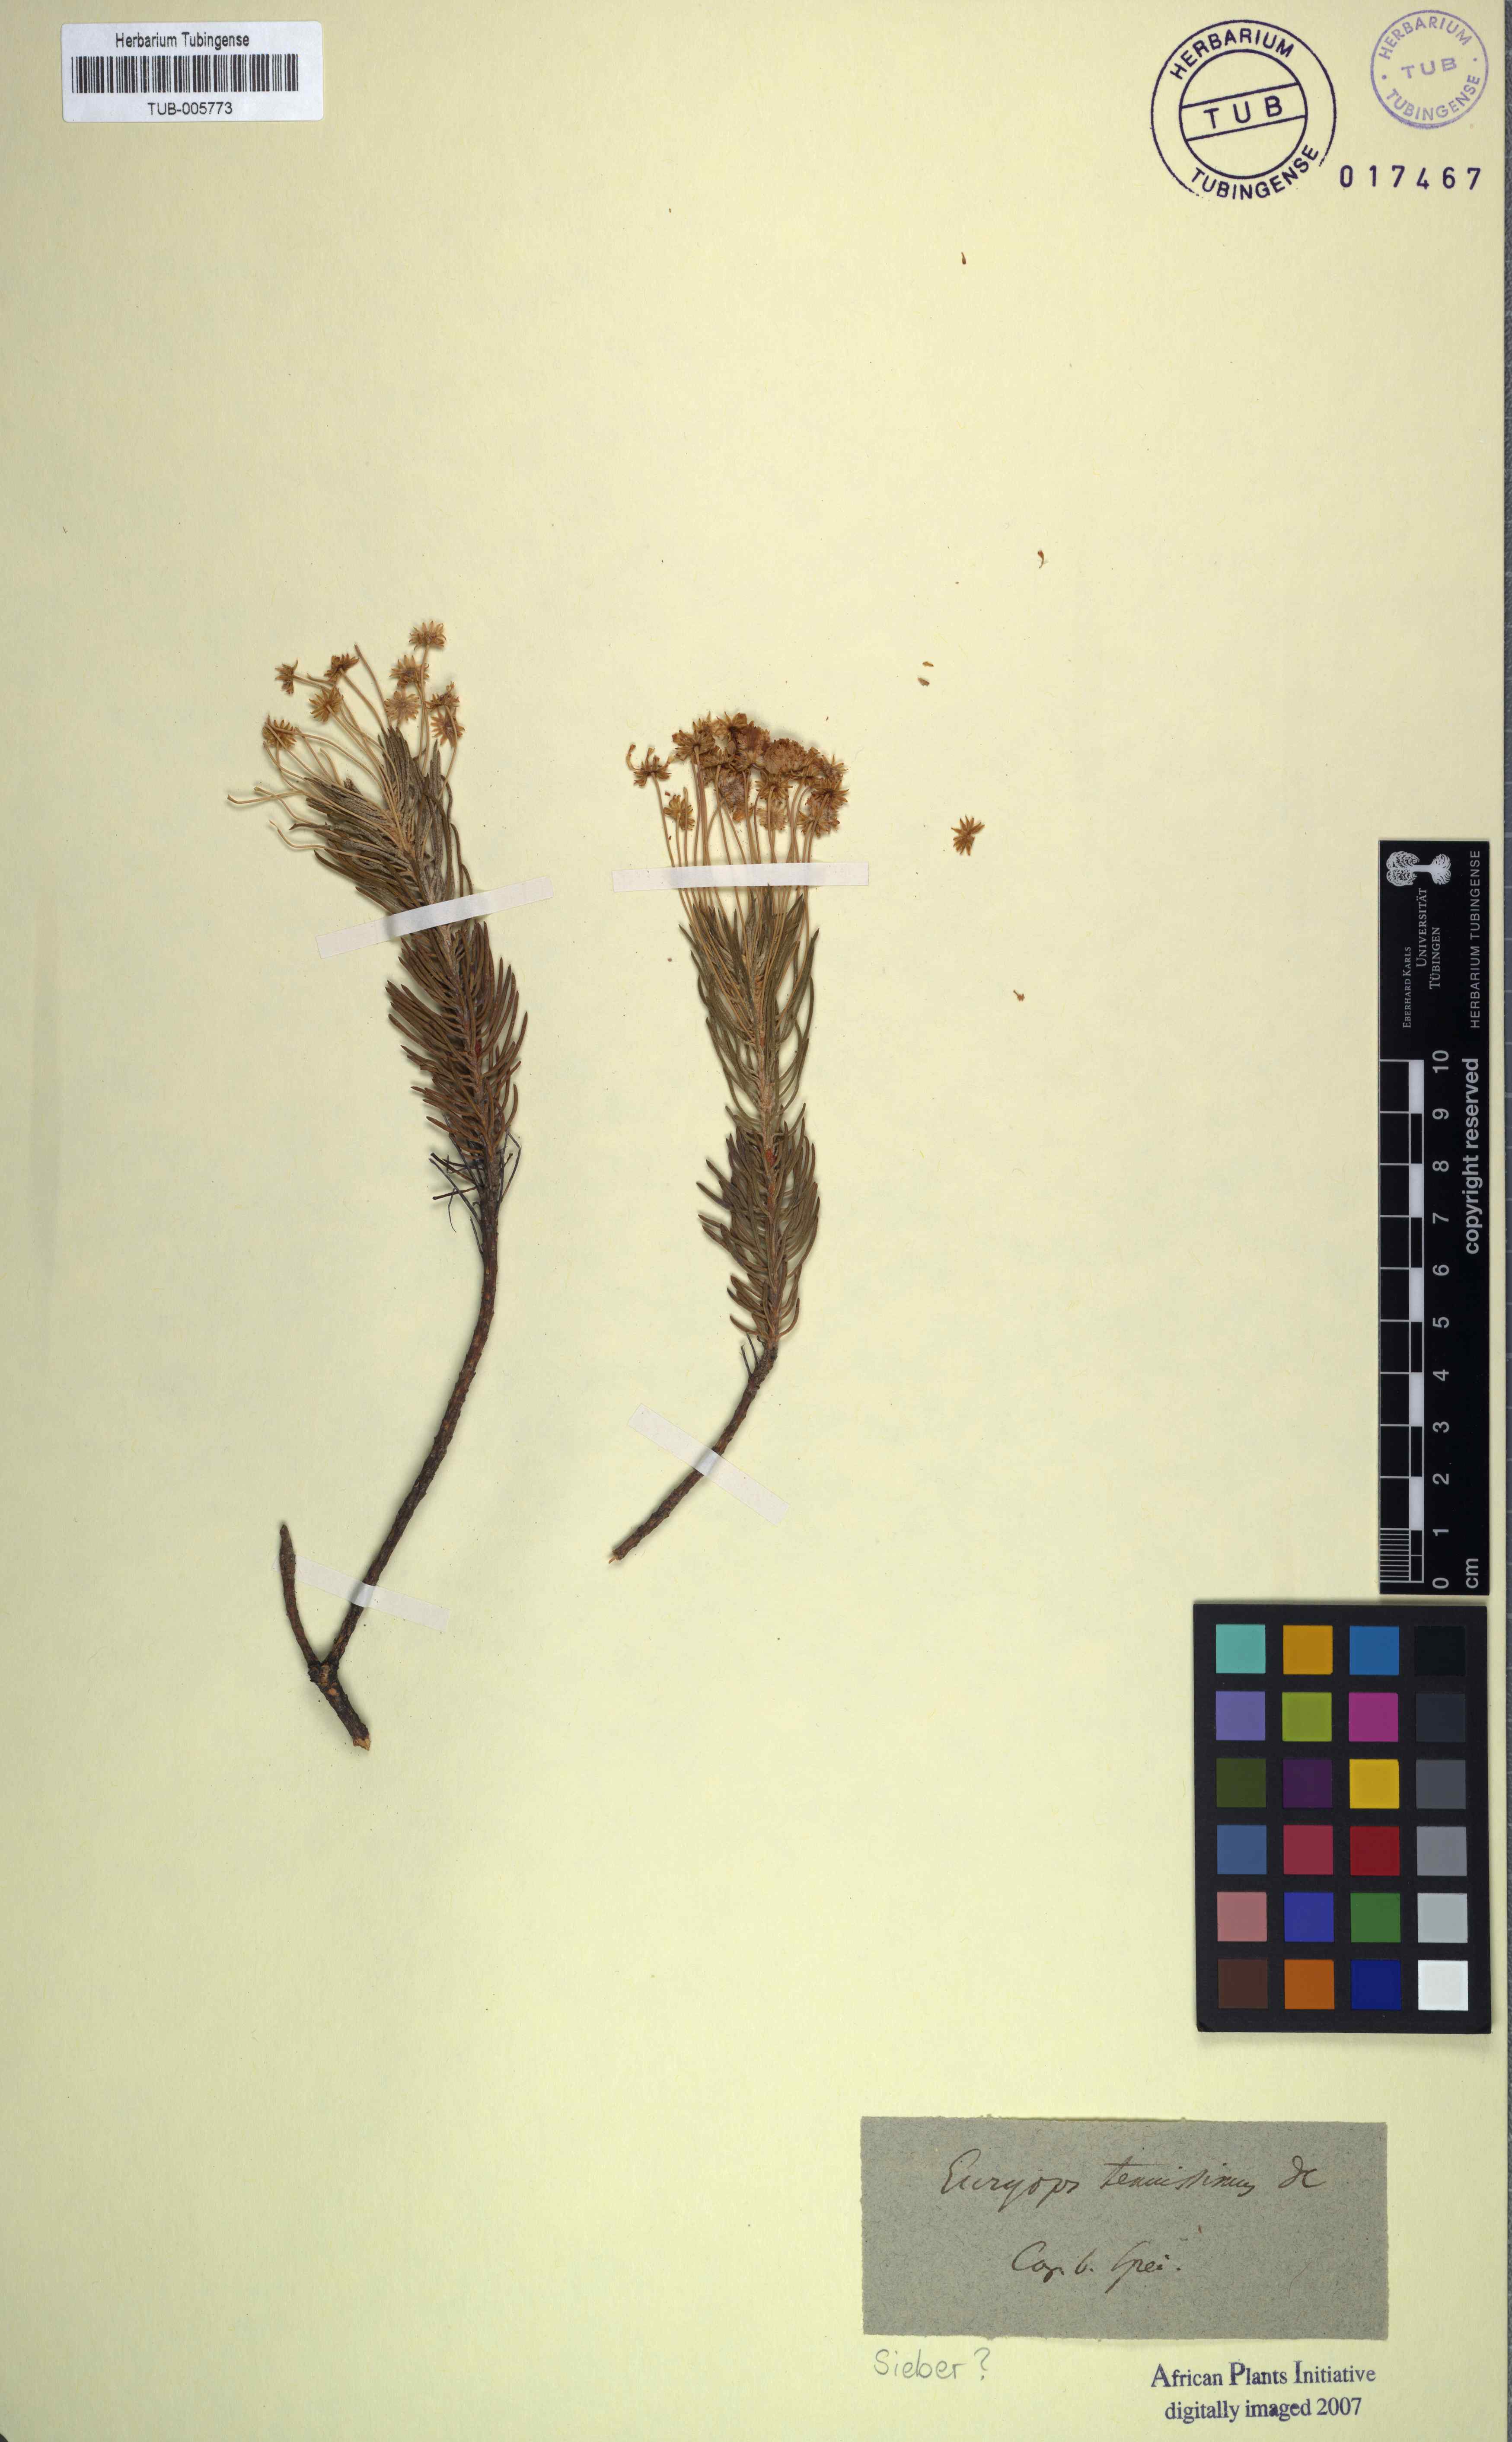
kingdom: Plantae
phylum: Tracheophyta
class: Magnoliopsida
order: Asterales
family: Asteraceae
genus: Euryops
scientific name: Euryops tenuissimus
